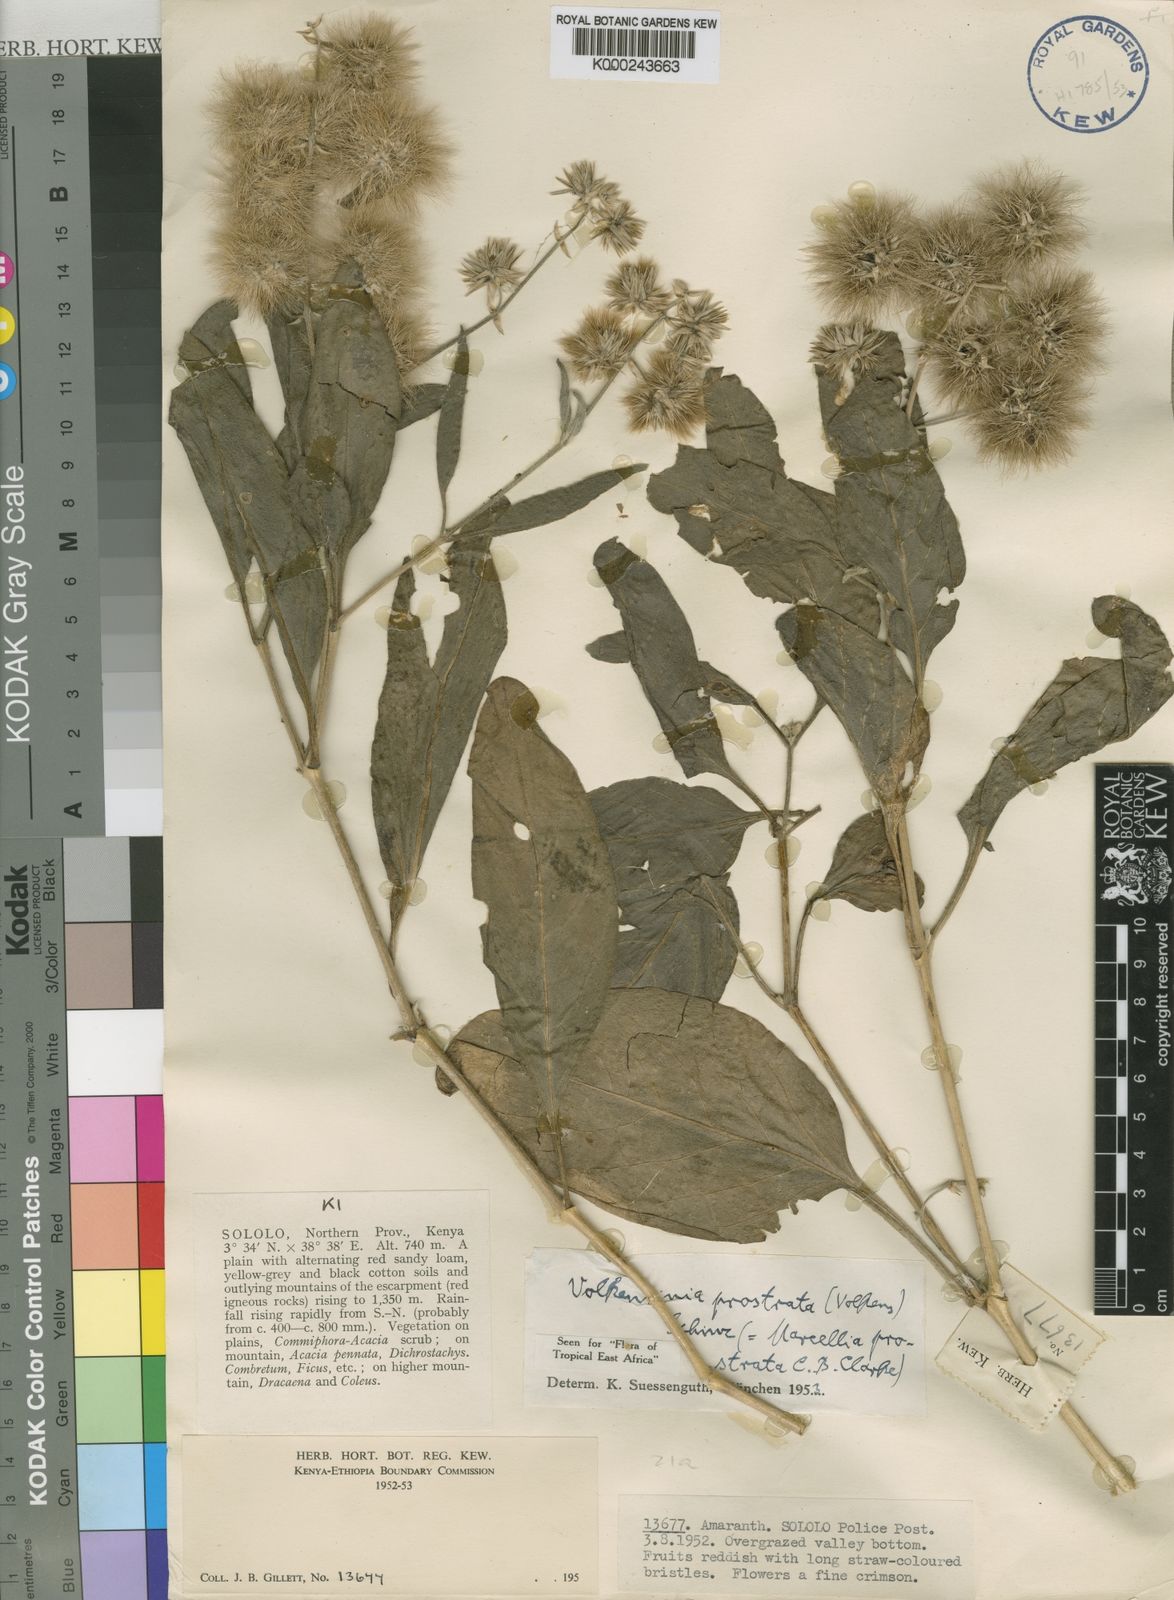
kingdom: Plantae
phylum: Tracheophyta
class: Magnoliopsida
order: Caryophyllales
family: Amaranthaceae
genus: Volkensinia
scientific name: Volkensinia prostrata
